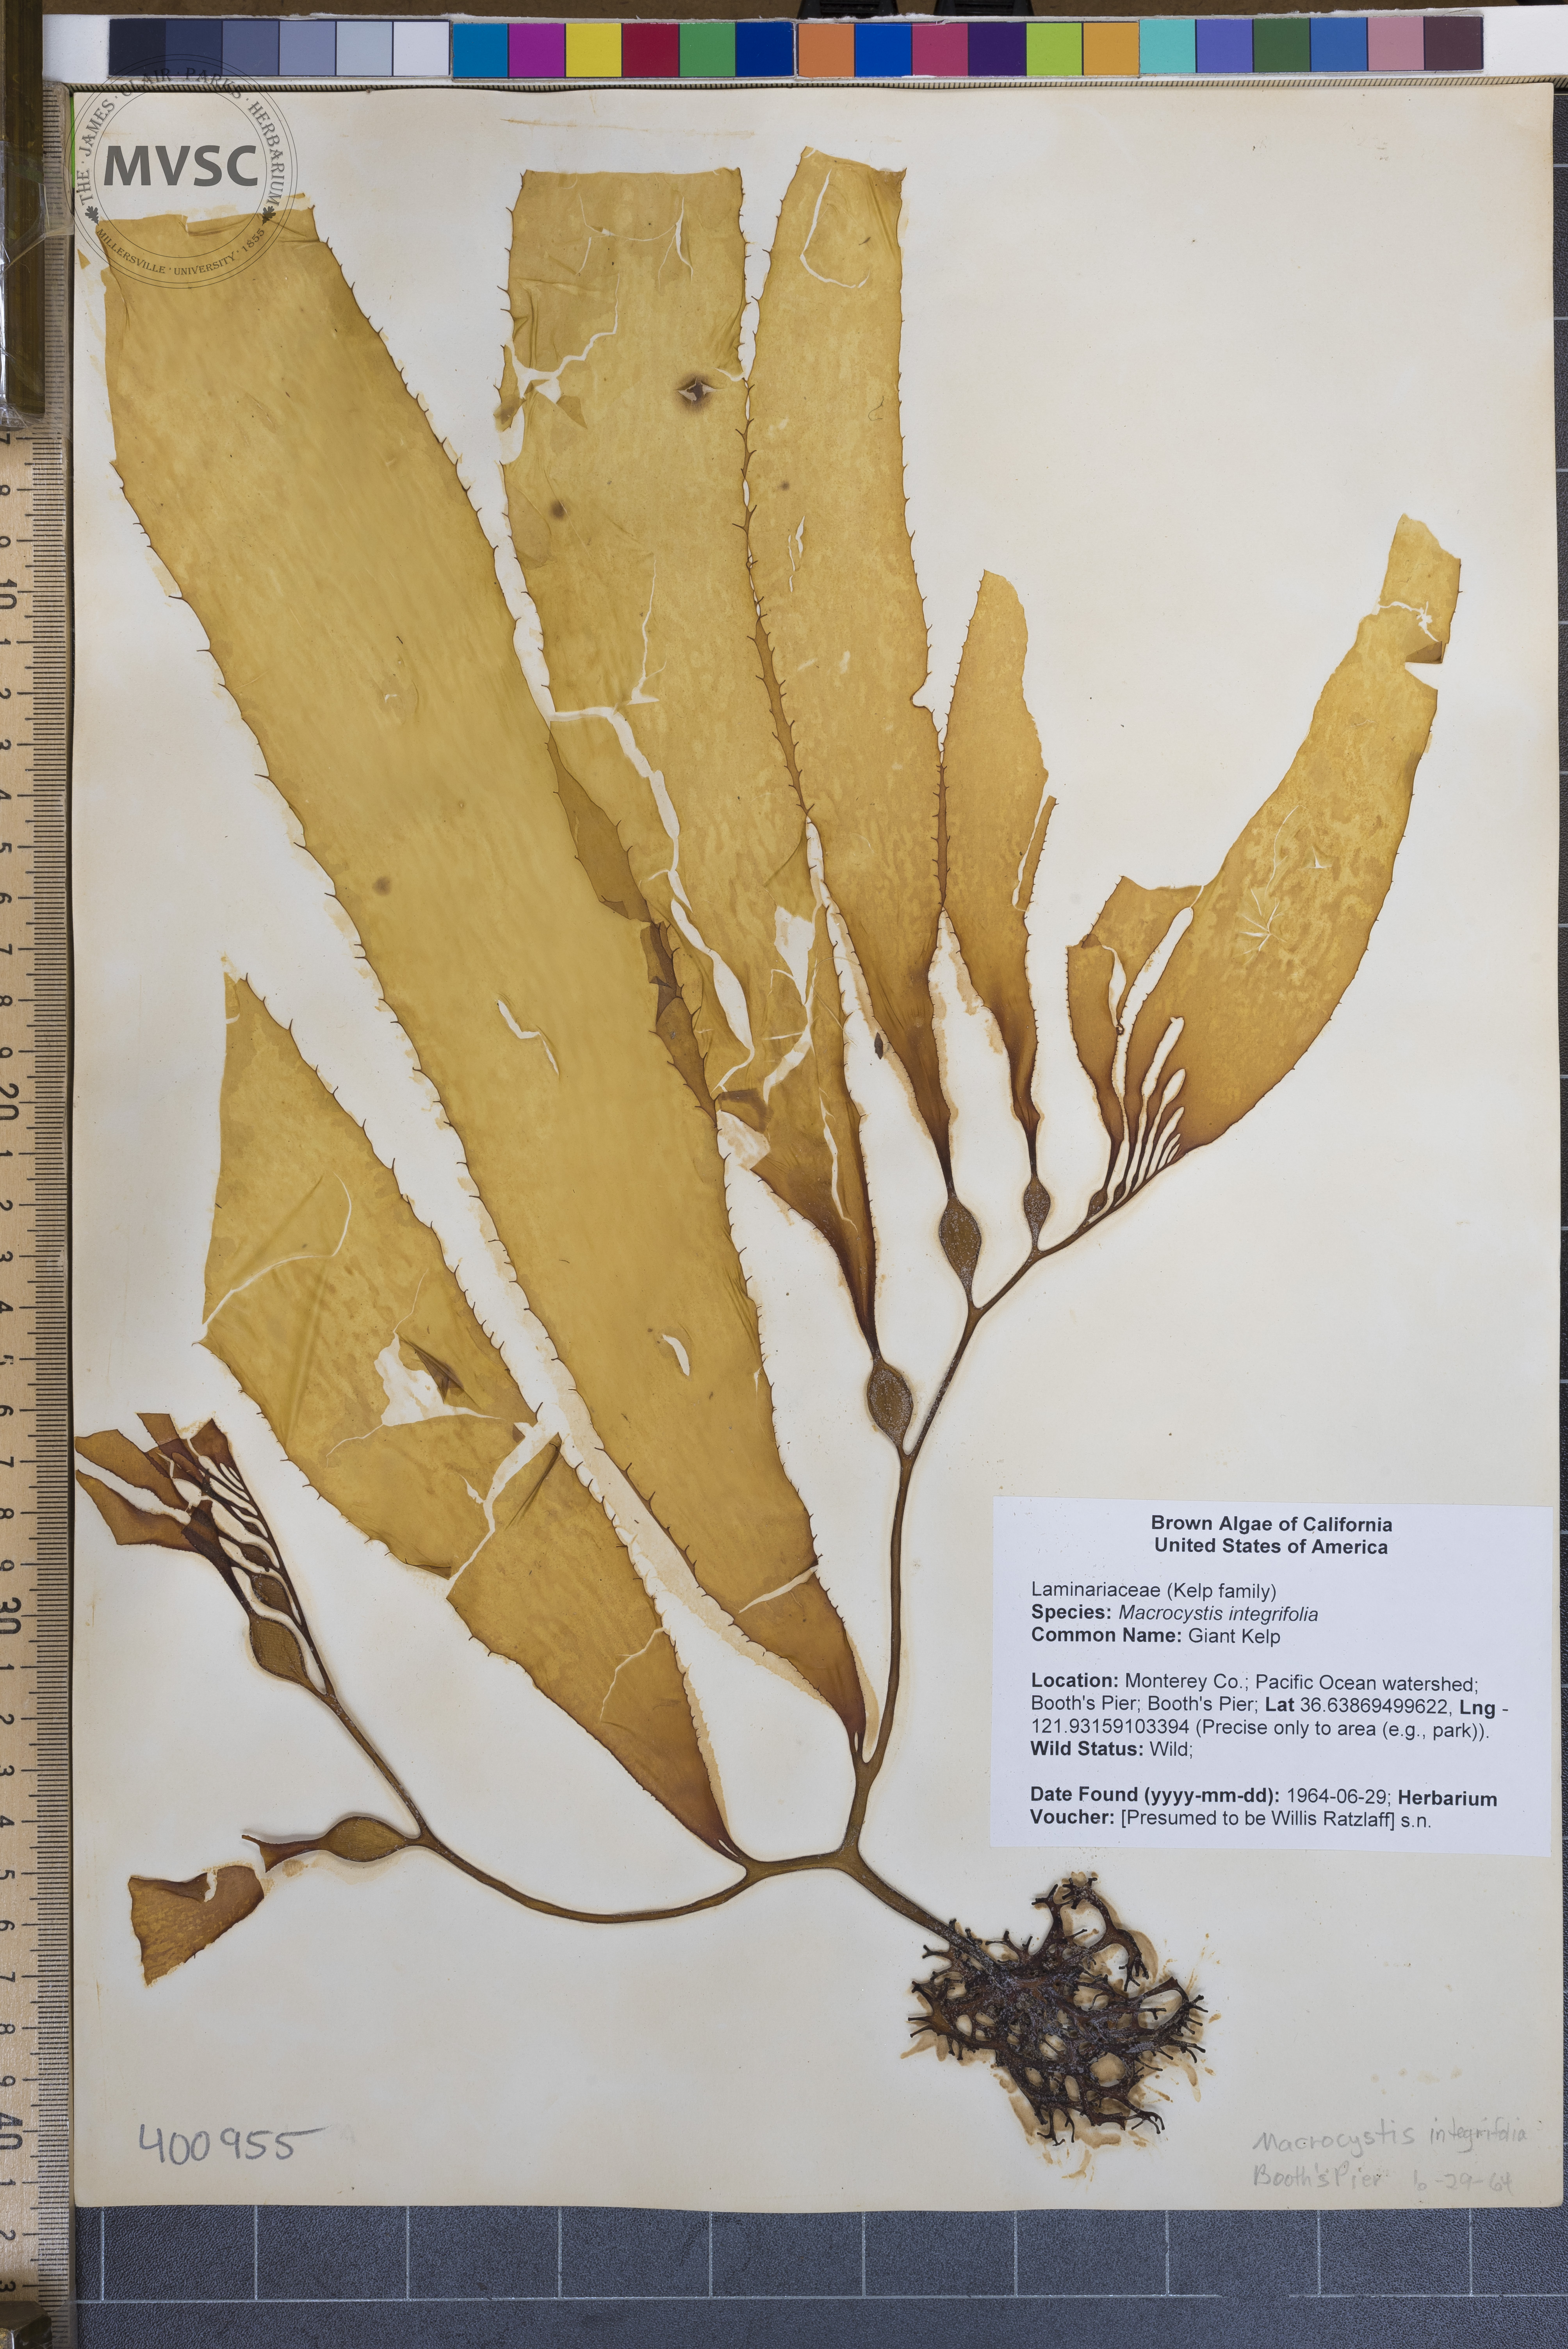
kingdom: Chromista
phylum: Ochrophyta
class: Phaeophyceae
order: Laminariales
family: Laminariaceae
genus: Macrocystis
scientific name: Macrocystis integrifolius
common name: Giant Kelp
